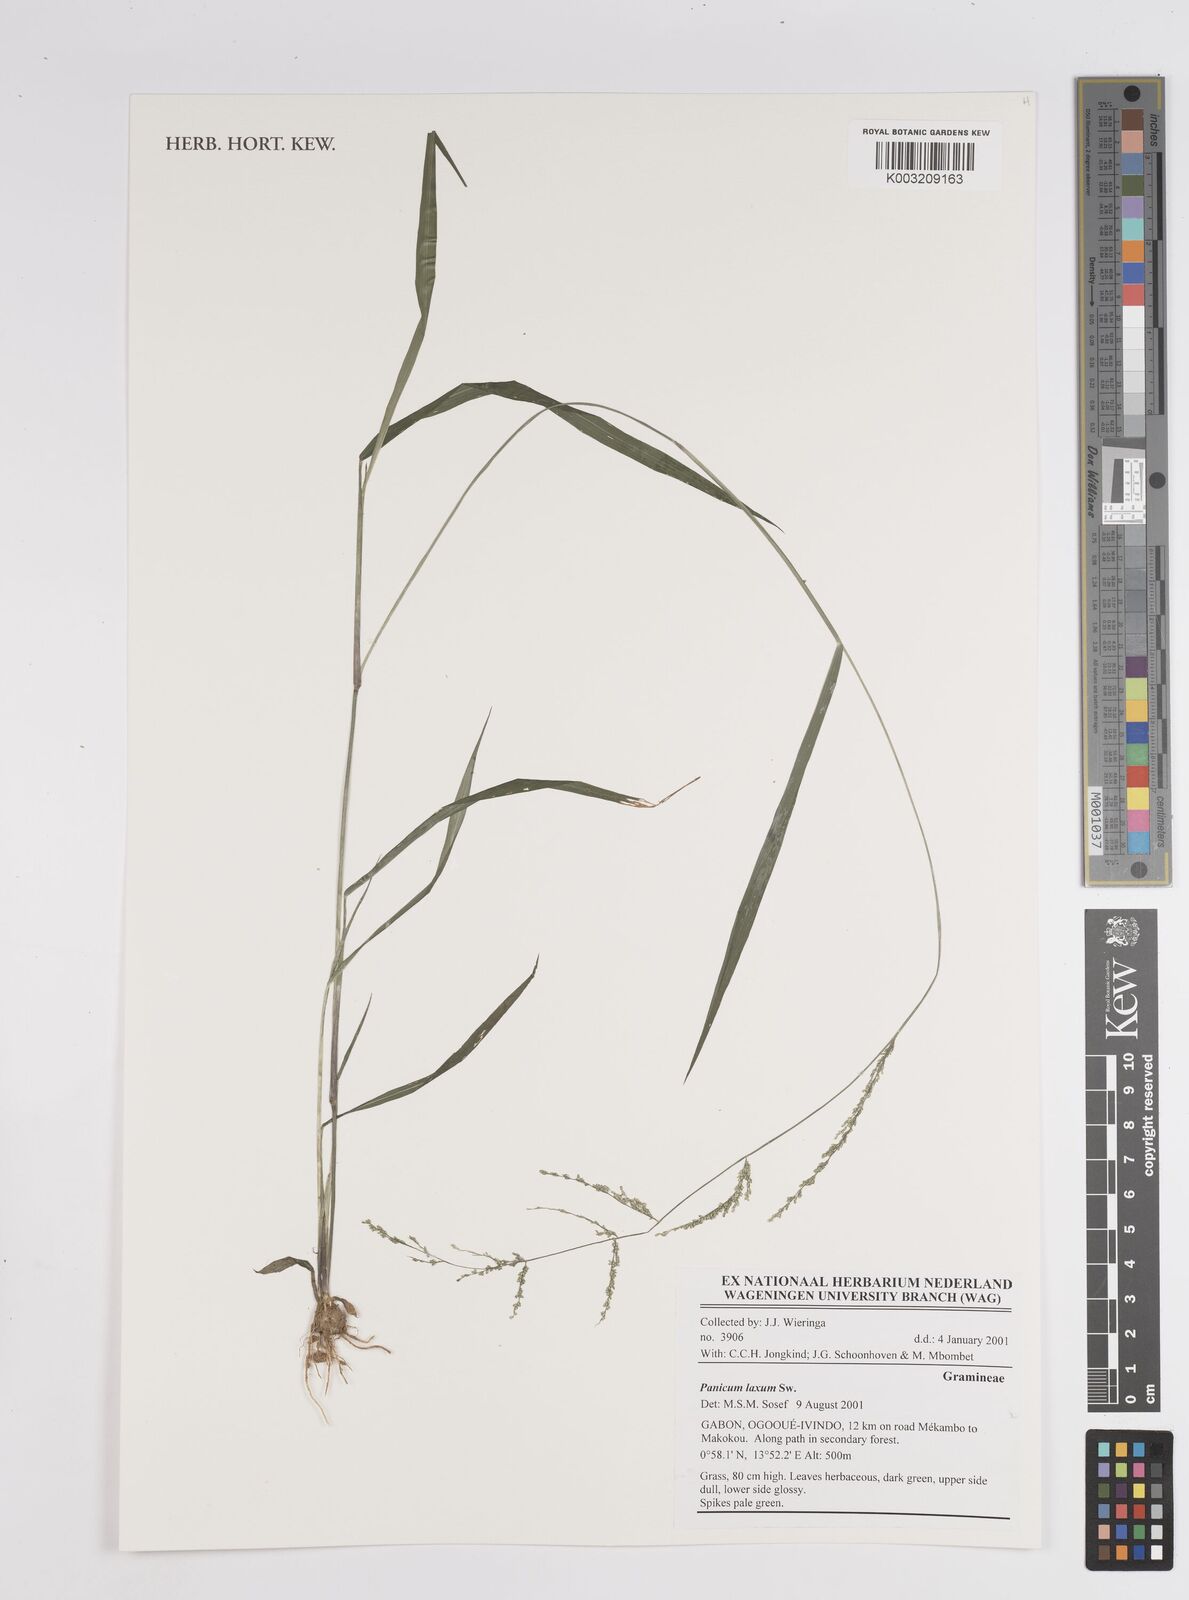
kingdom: Plantae
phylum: Tracheophyta
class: Liliopsida
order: Poales
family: Poaceae
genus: Steinchisma
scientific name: Steinchisma laxum
